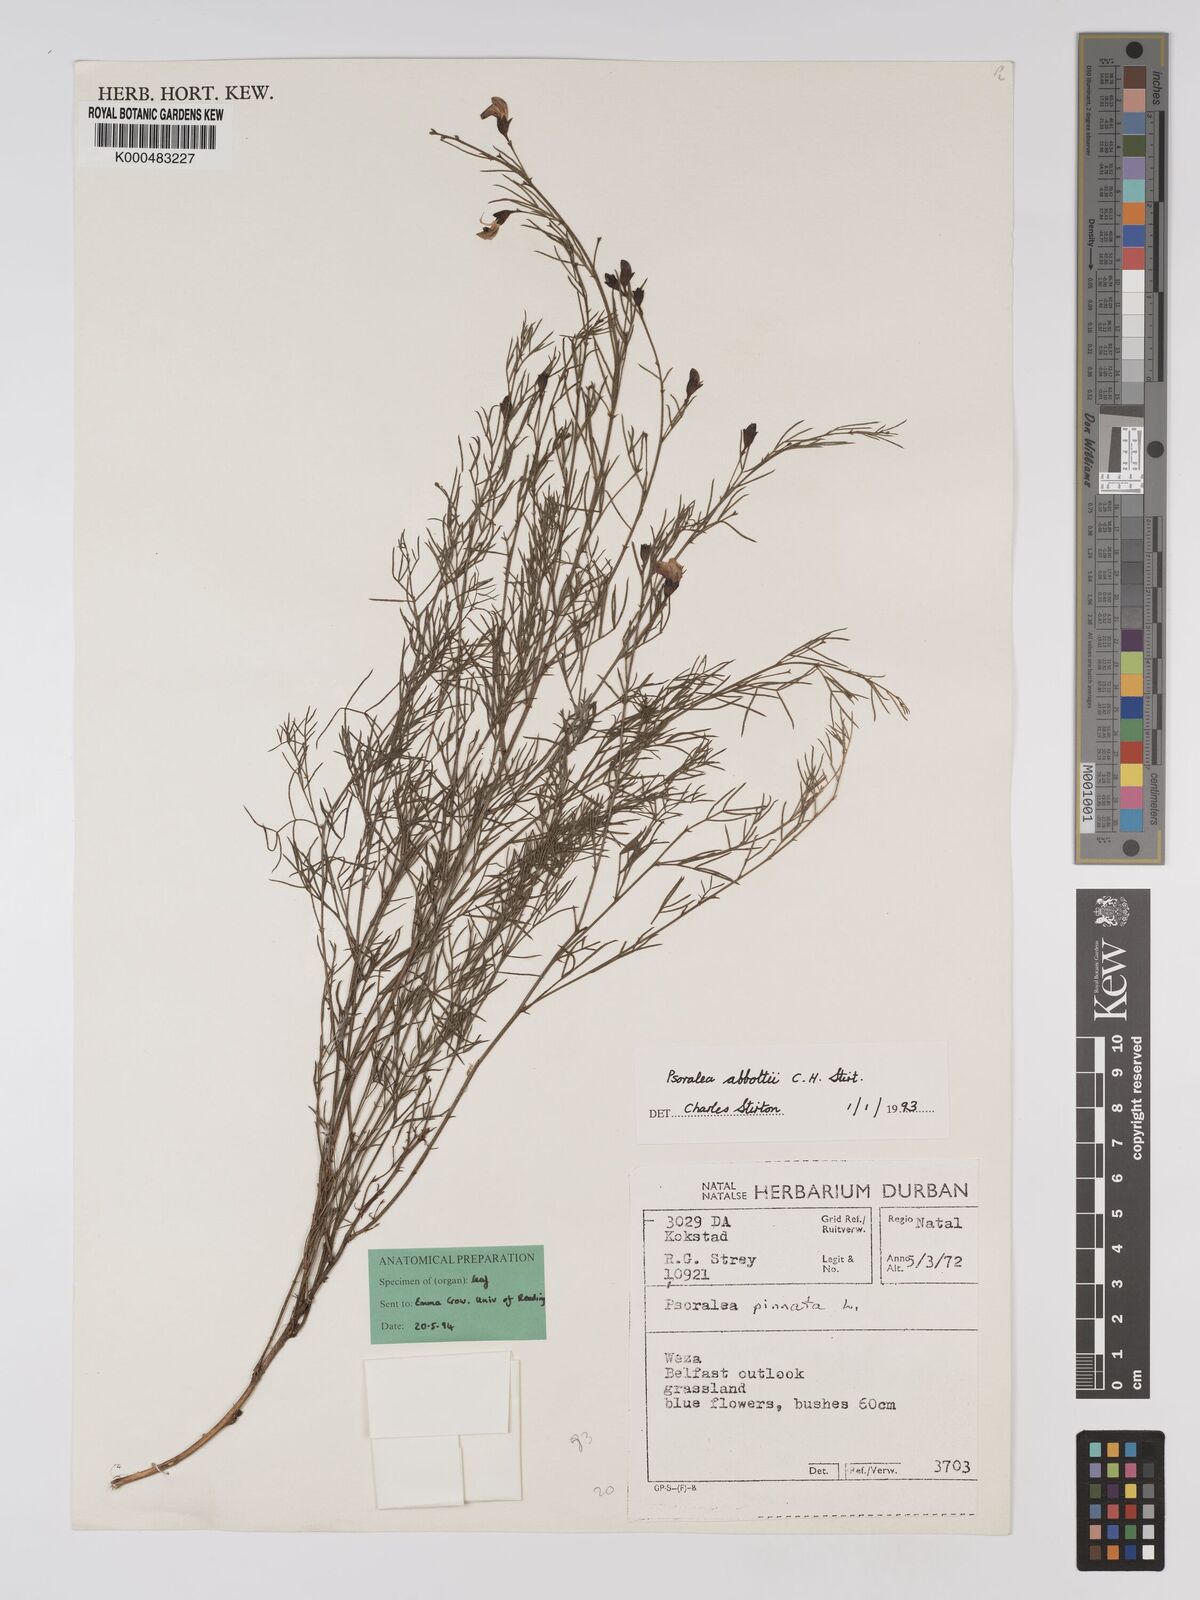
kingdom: Plantae
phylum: Tracheophyta
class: Magnoliopsida
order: Fabales
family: Fabaceae
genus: Psoralea
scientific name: Psoralea abbottii
